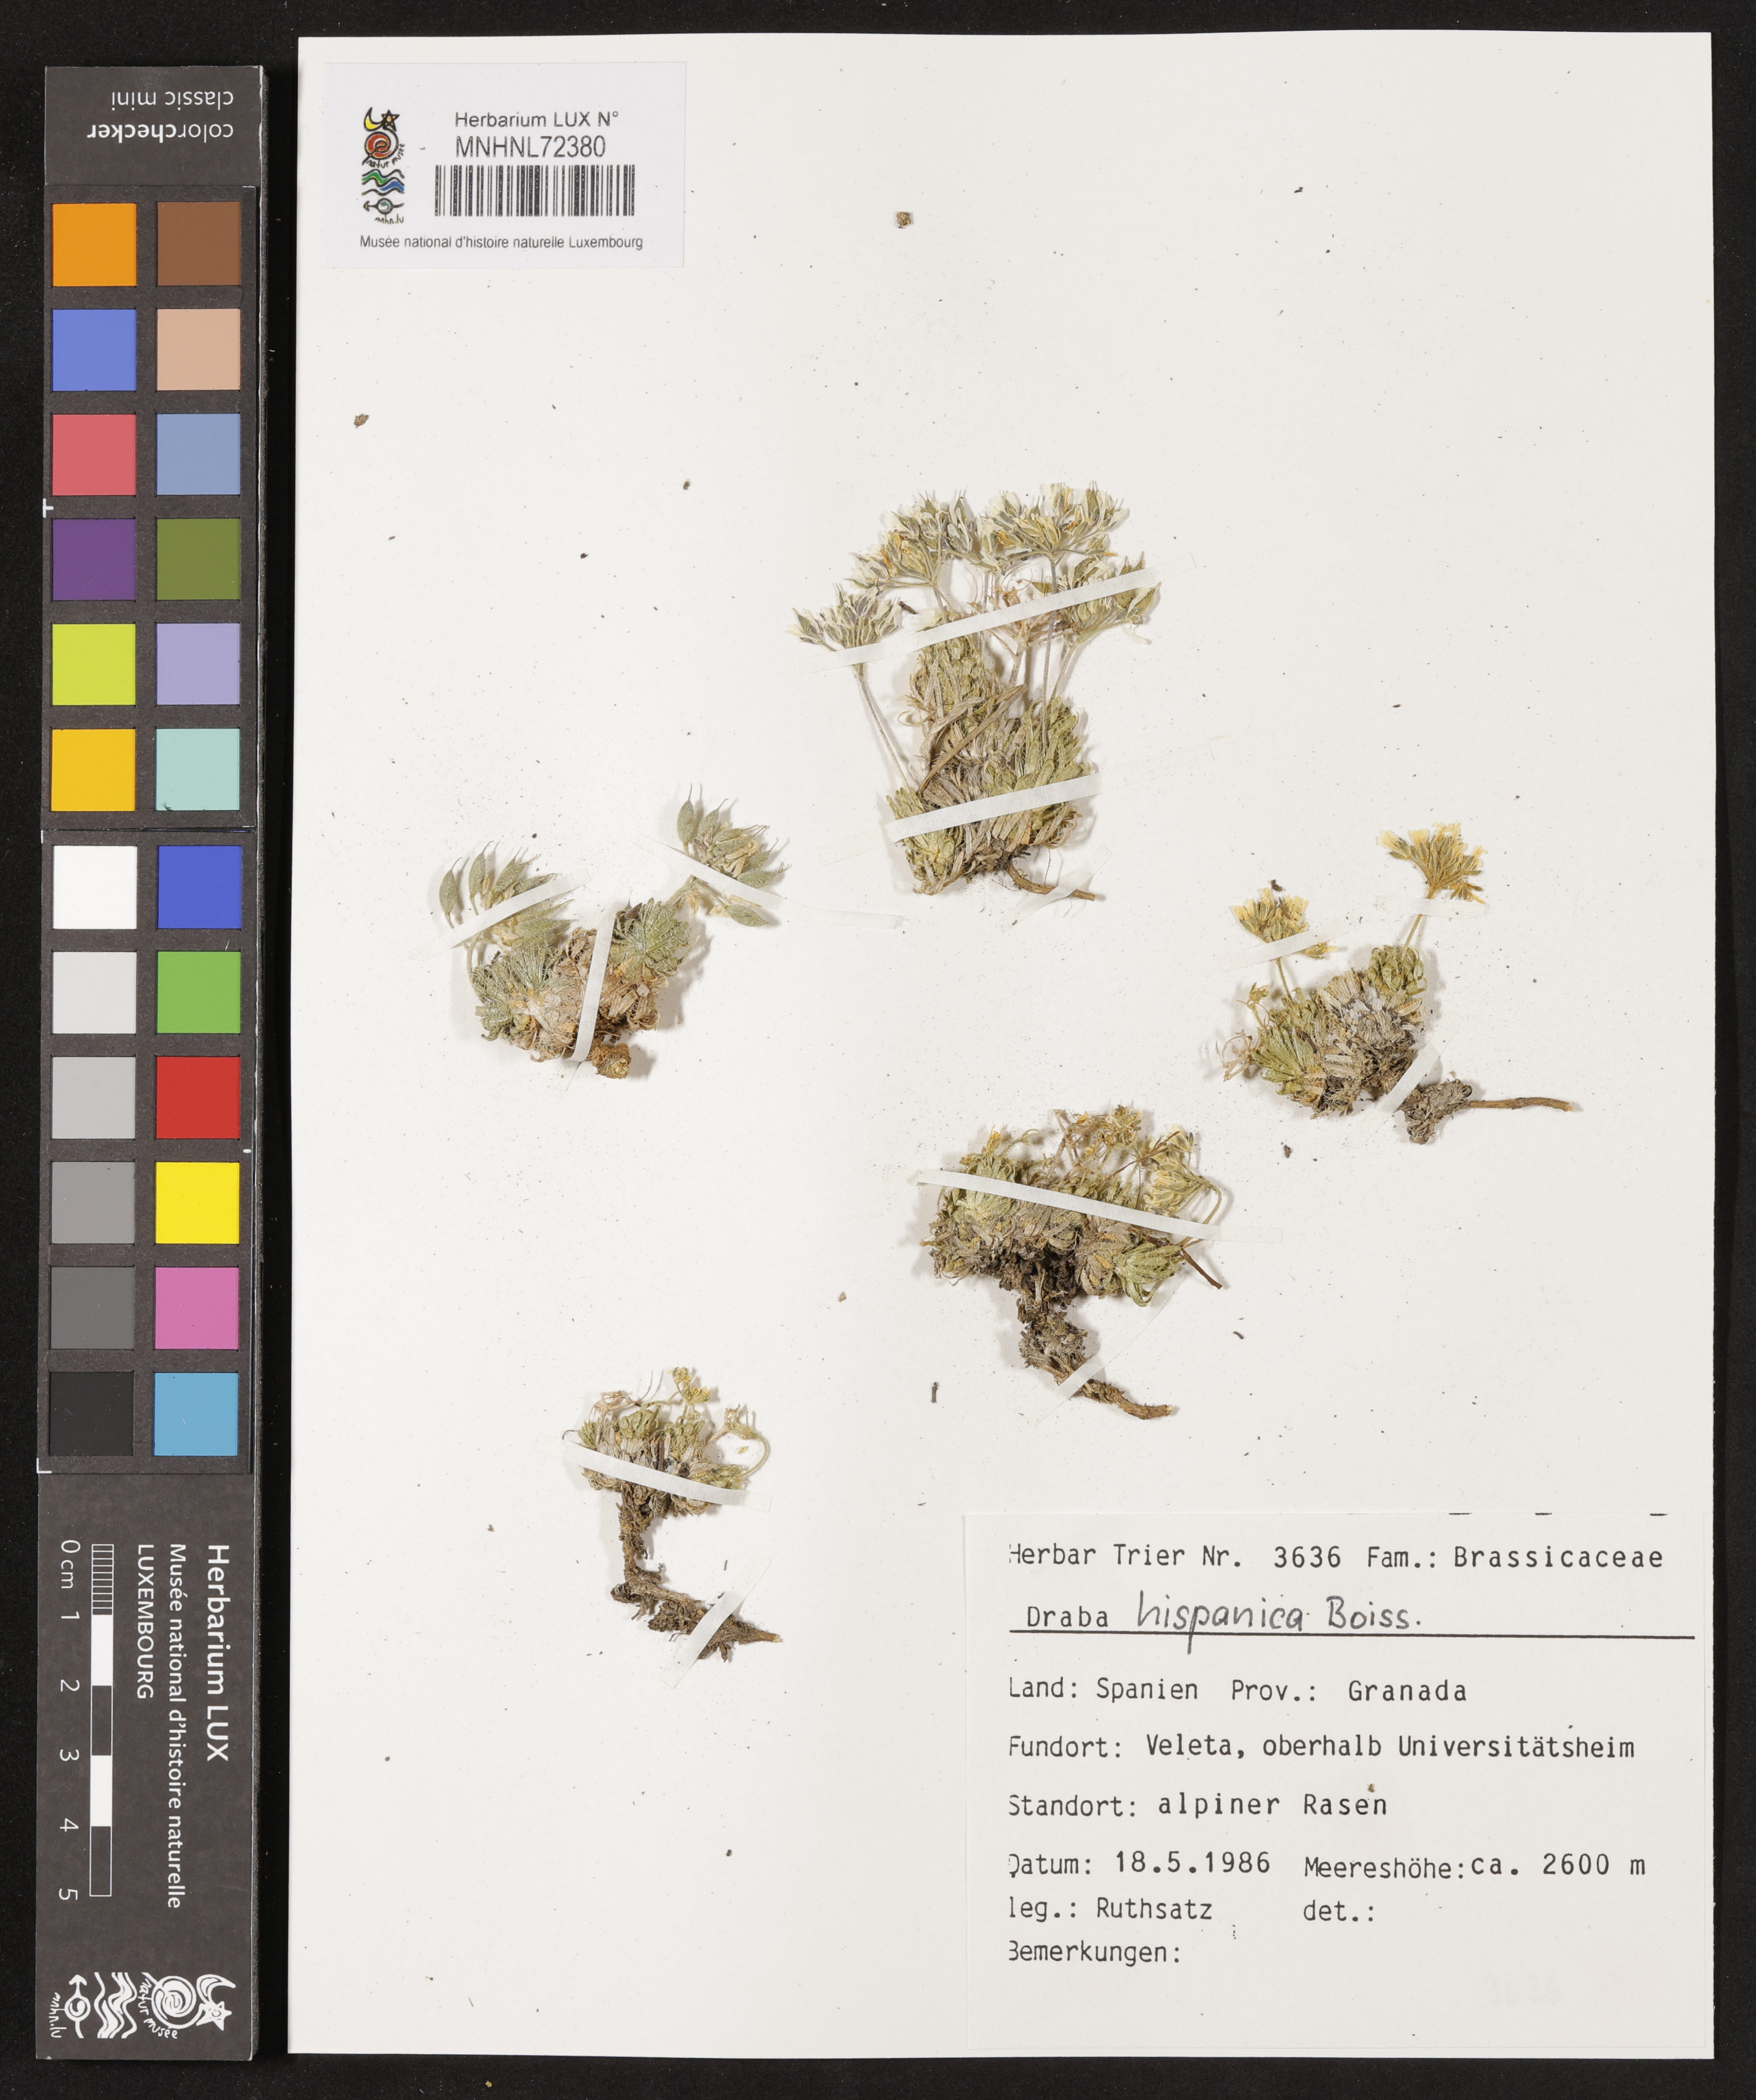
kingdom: Plantae
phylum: Tracheophyta
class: Magnoliopsida
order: Brassicales
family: Brassicaceae
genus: Draba
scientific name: Draba hispanica
